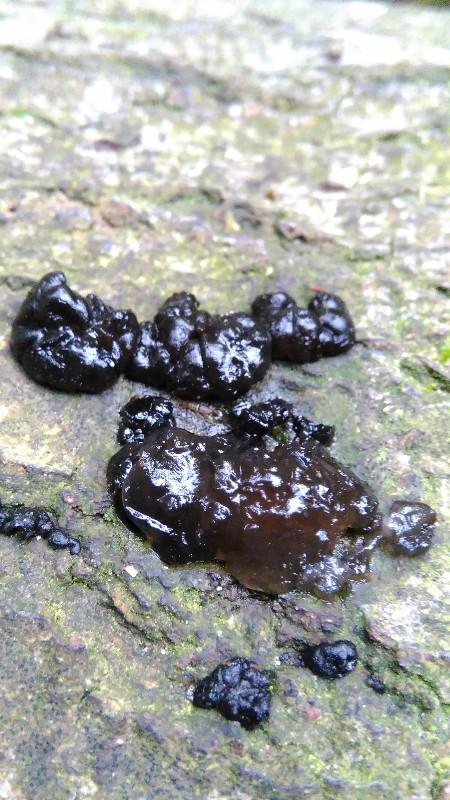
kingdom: Fungi
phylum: Basidiomycota
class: Agaricomycetes
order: Auriculariales
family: Auriculariaceae
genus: Exidia
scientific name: Exidia nigricans
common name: almindelig bævretop
